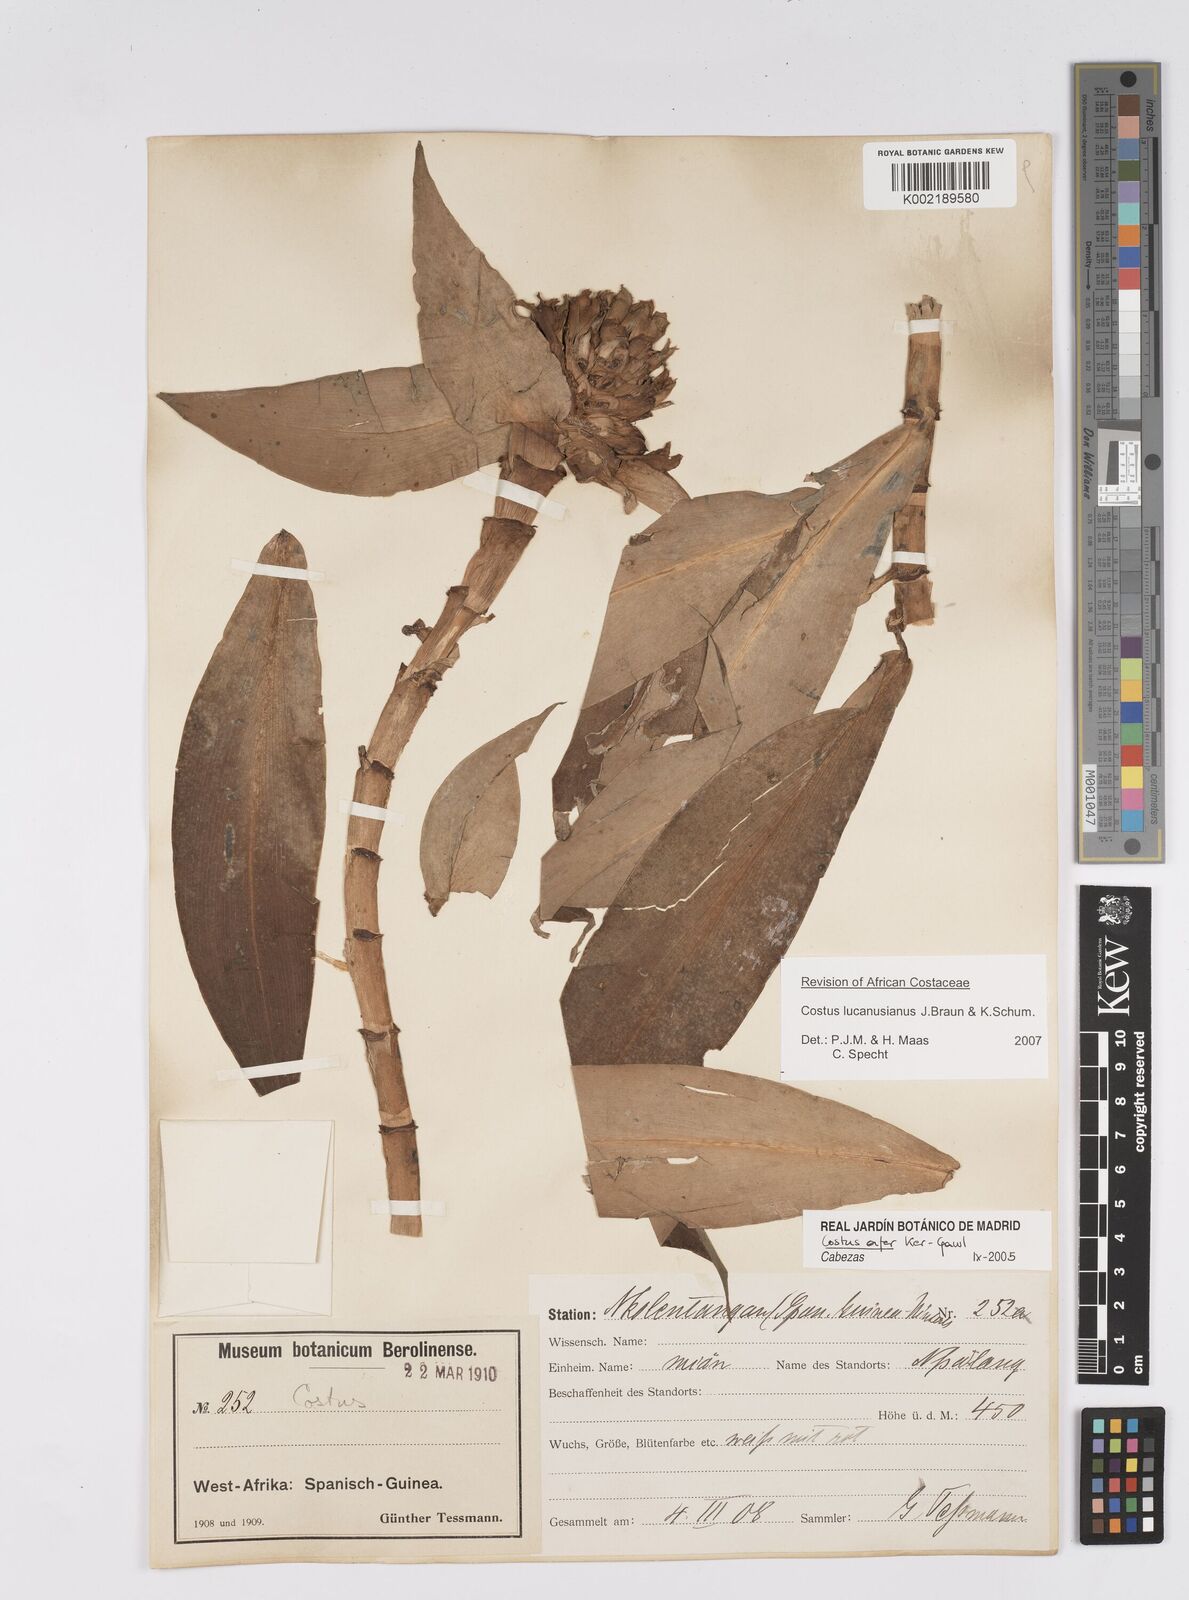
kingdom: Plantae
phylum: Tracheophyta
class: Liliopsida
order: Zingiberales
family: Costaceae
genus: Costus
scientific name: Costus lucanusianus
